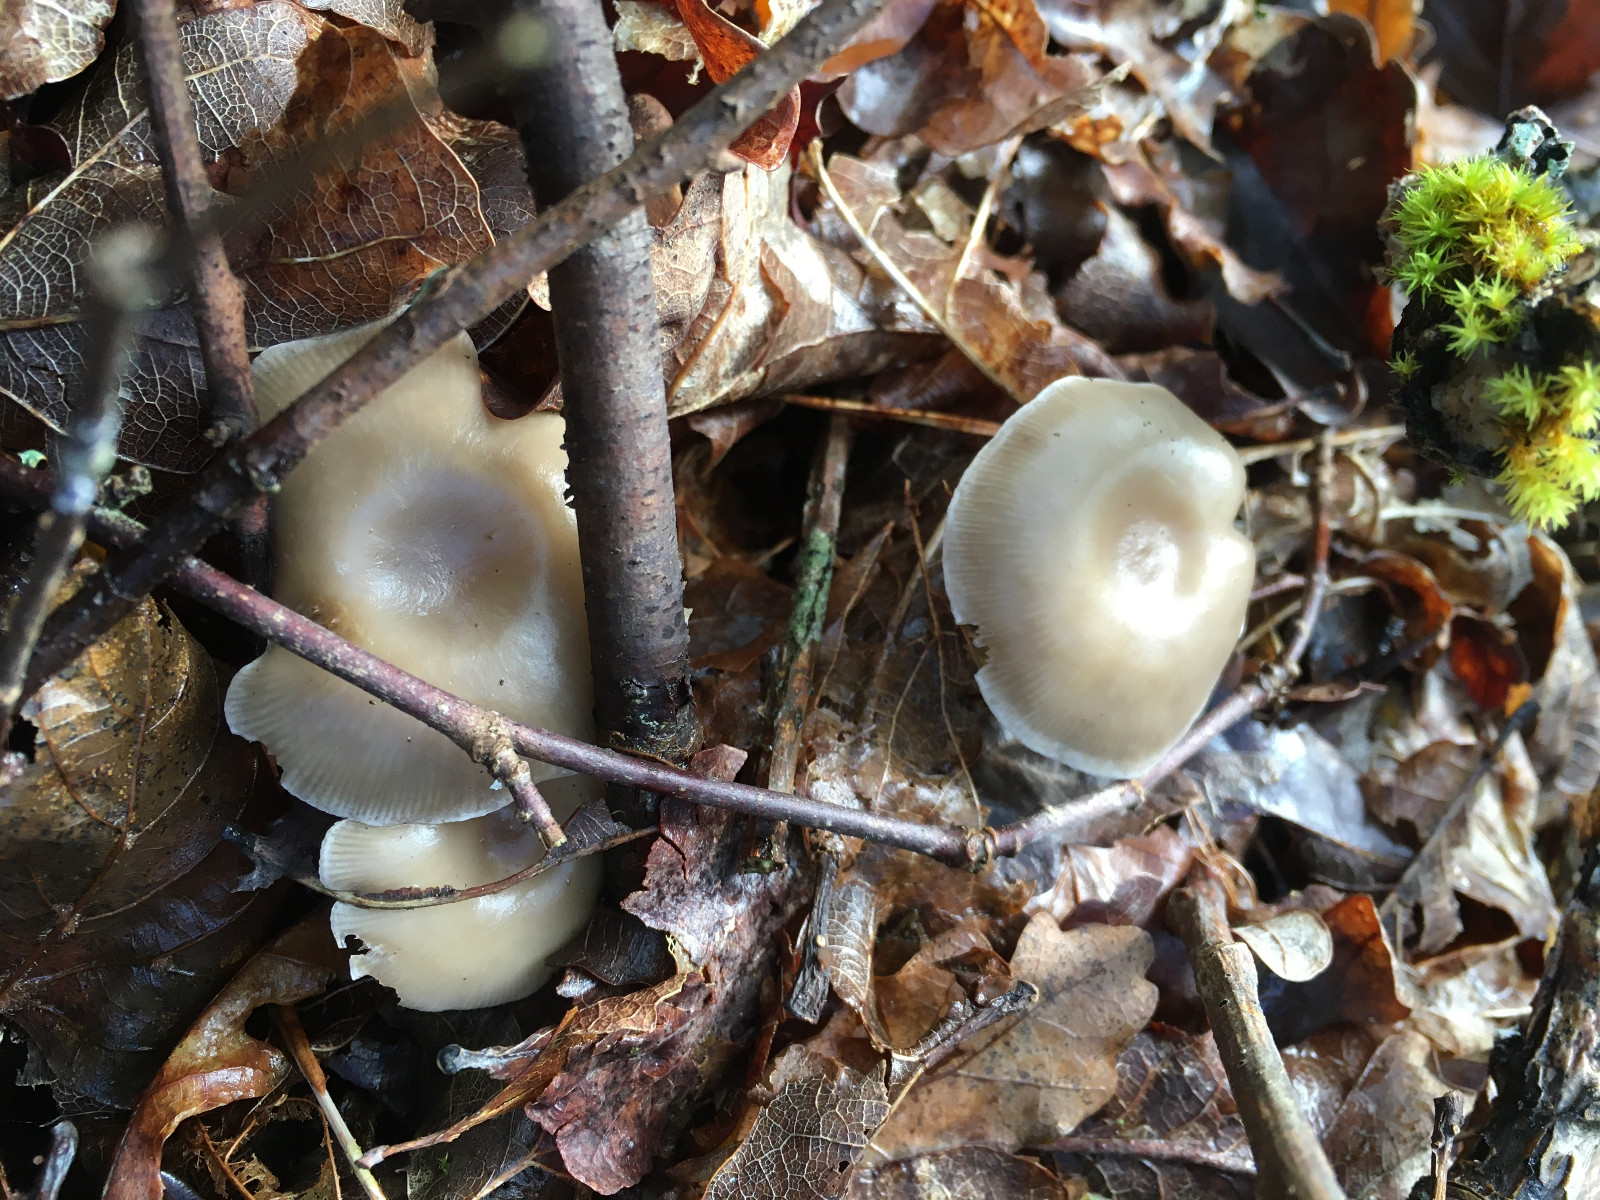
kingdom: Fungi
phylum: Basidiomycota
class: Agaricomycetes
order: Agaricales
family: Tricholomataceae
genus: Clitocybe
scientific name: Clitocybe subspadicea
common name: nitrøs tragthat
